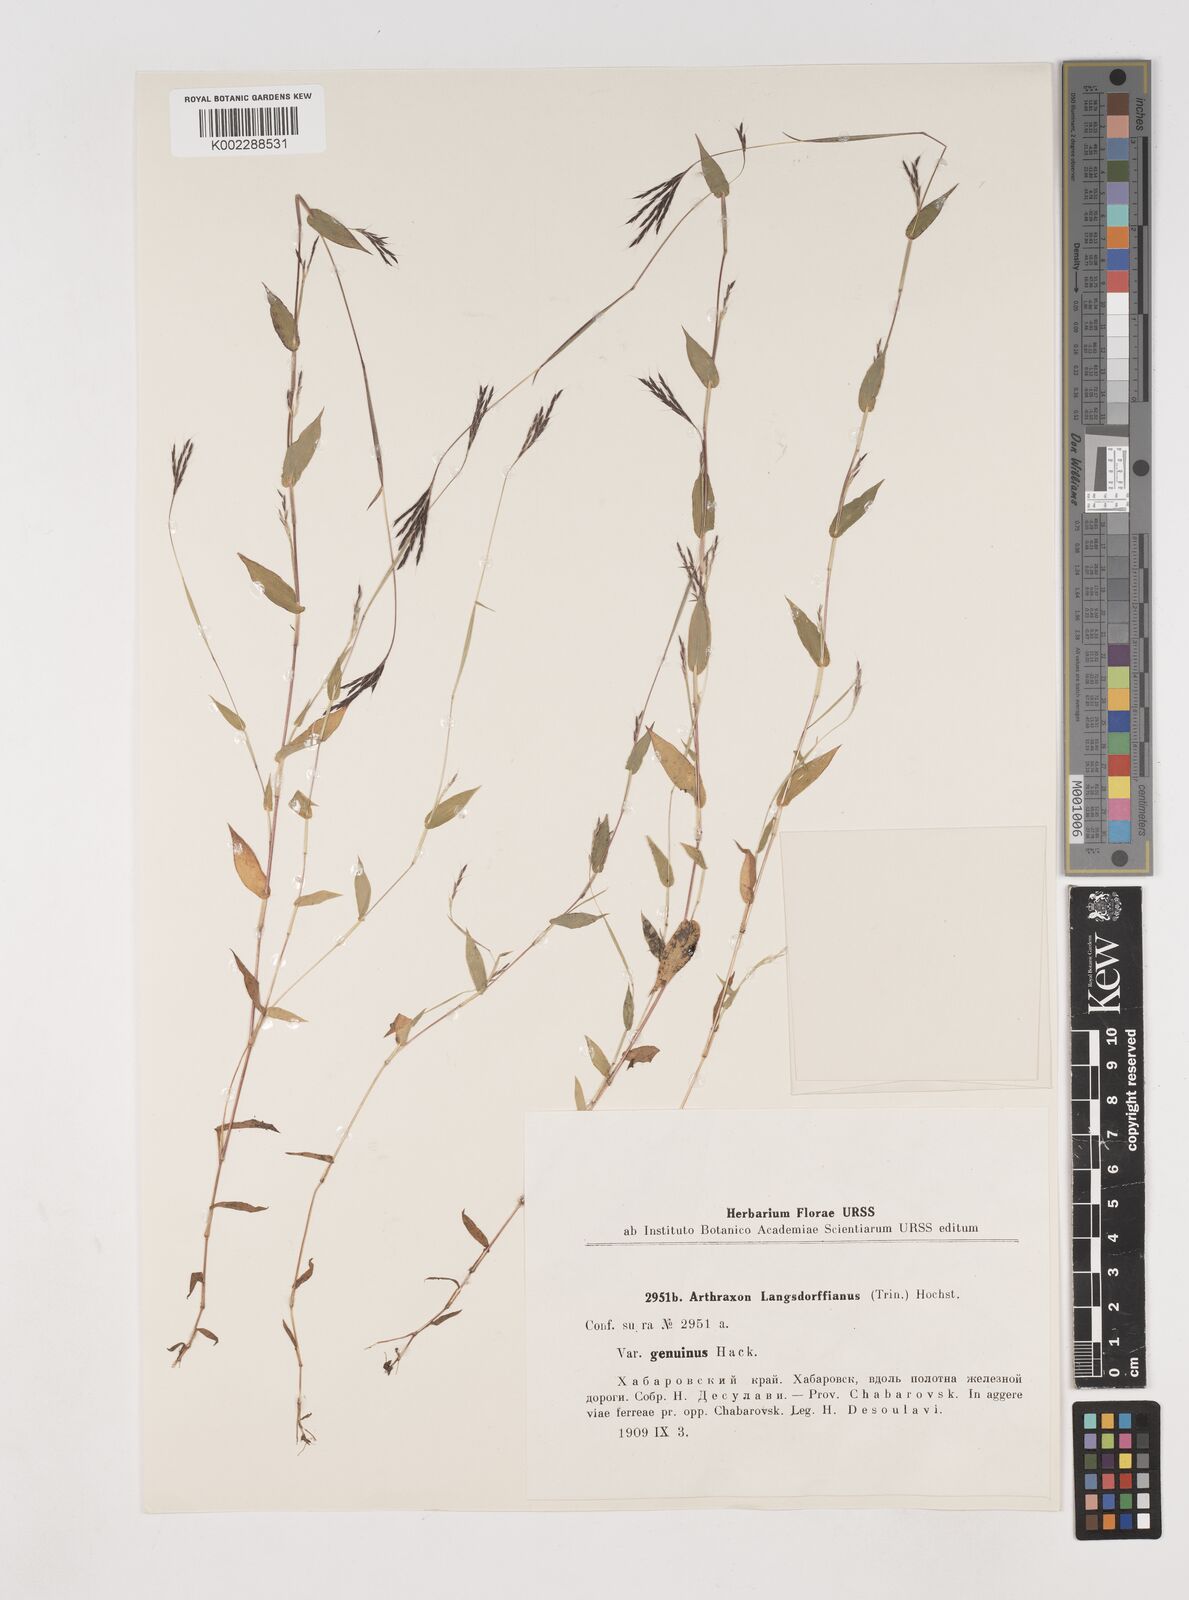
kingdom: Plantae
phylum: Tracheophyta
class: Liliopsida
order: Poales
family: Poaceae
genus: Arthraxon
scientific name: Arthraxon hispidus
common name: Small carpgrass
